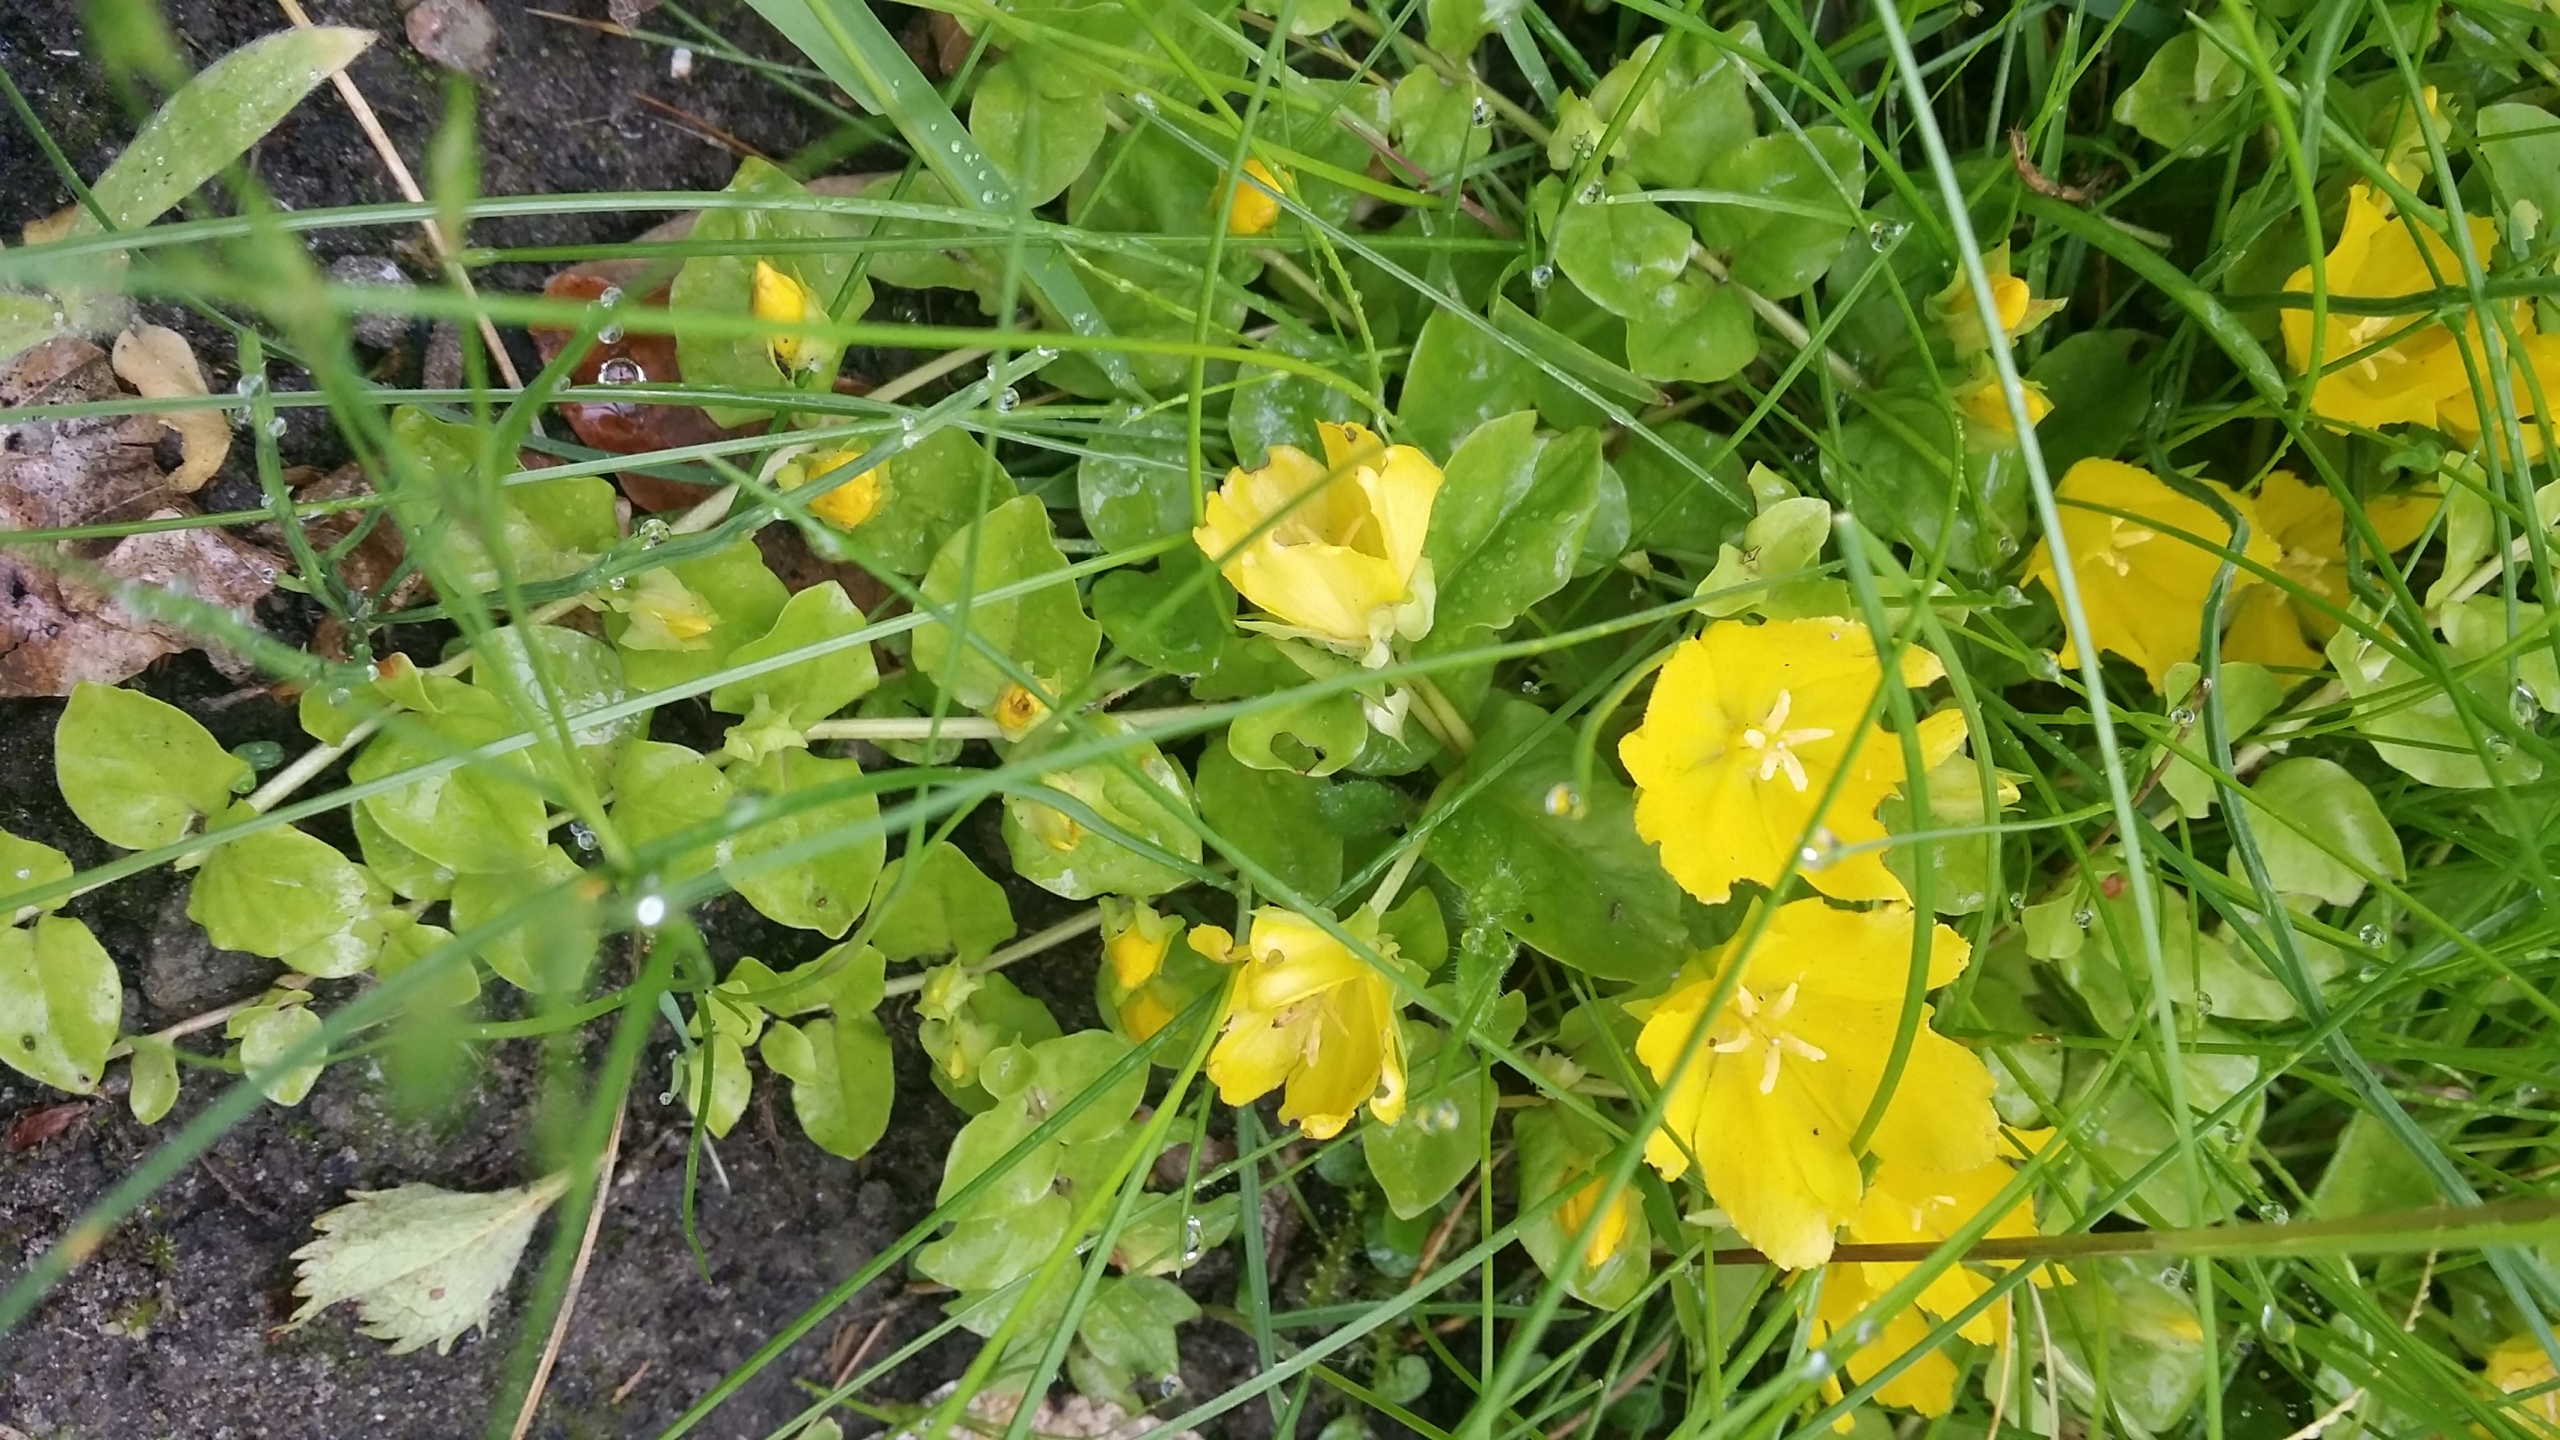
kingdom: Plantae
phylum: Tracheophyta
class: Magnoliopsida
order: Ericales
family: Primulaceae
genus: Lysimachia
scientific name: Lysimachia nummularia
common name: Pengebladet fredløs
